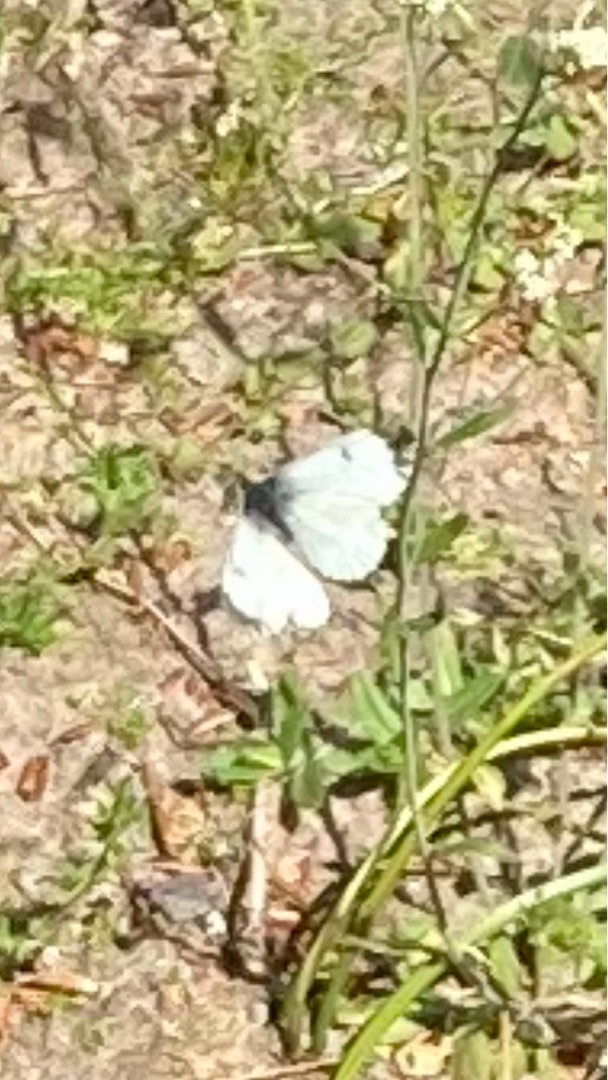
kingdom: Animalia
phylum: Arthropoda
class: Insecta
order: Lepidoptera
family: Pieridae
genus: Anthocharis
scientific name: Anthocharis cardamines
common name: Aurora
